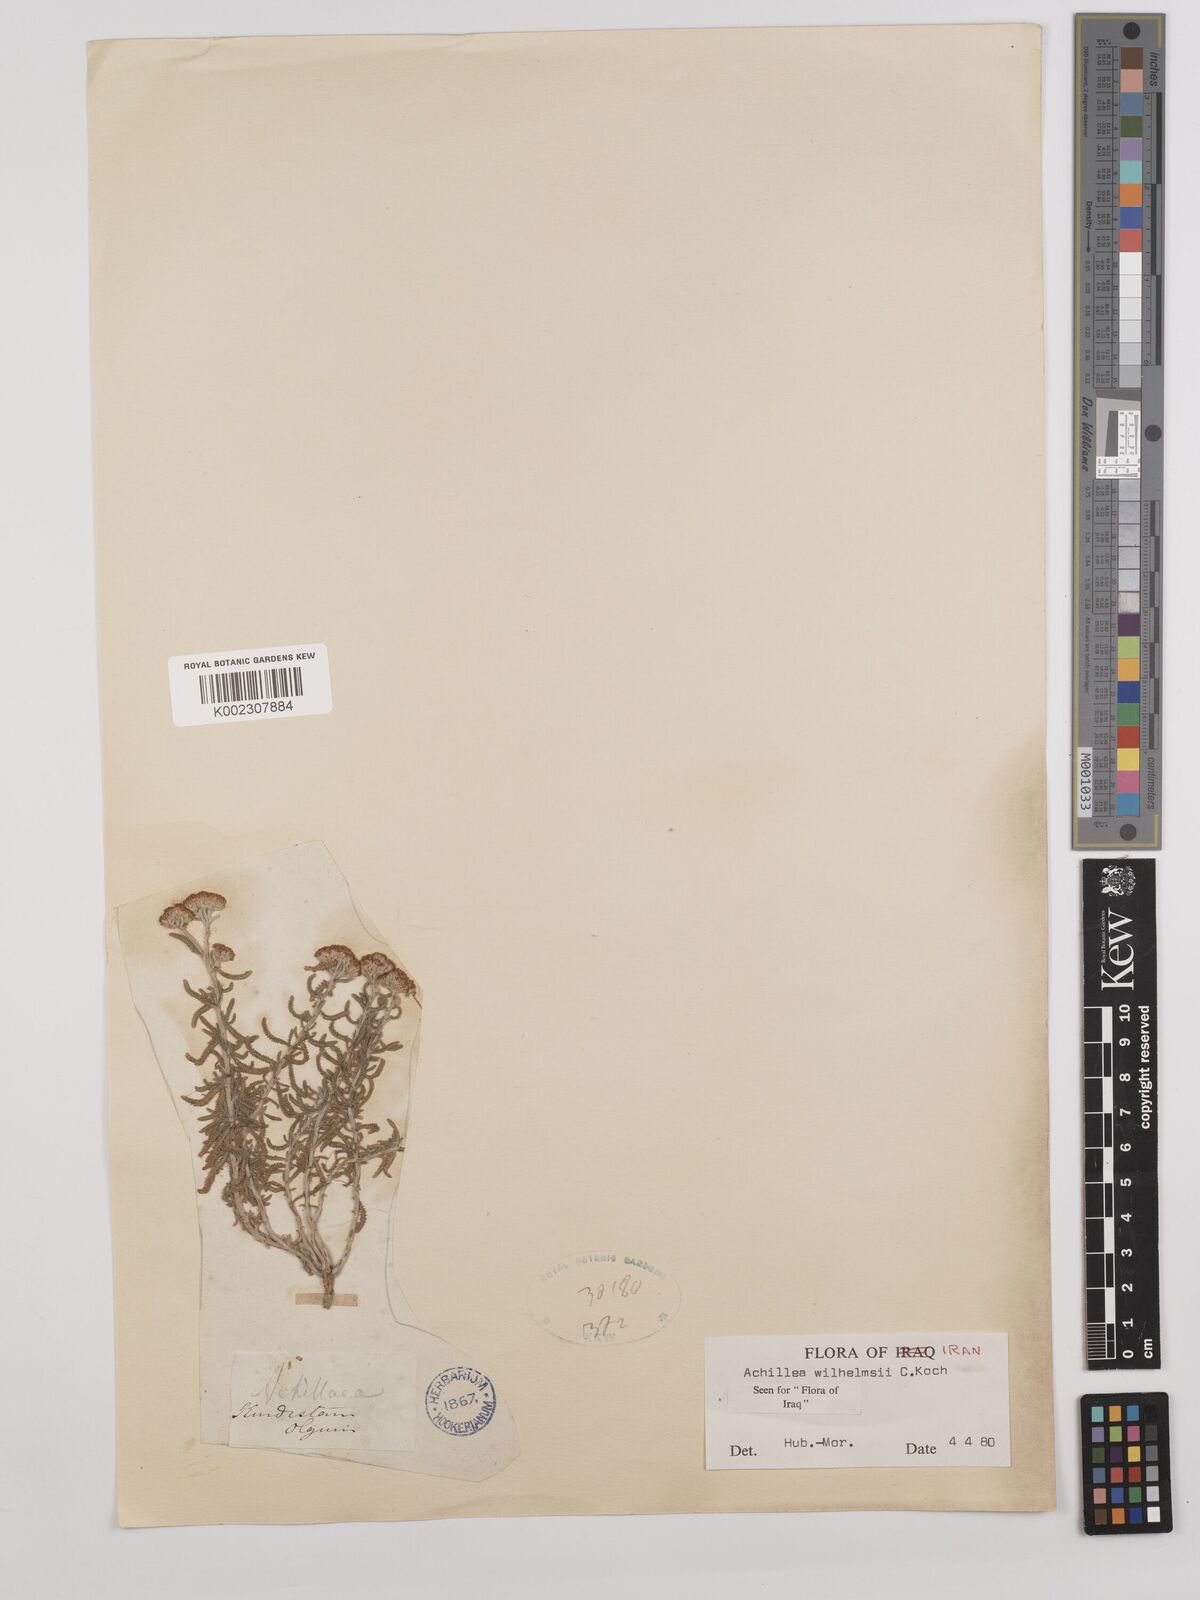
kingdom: Plantae
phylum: Tracheophyta
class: Magnoliopsida
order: Asterales
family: Asteraceae
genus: Achillea
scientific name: Achillea wilhelmsii
